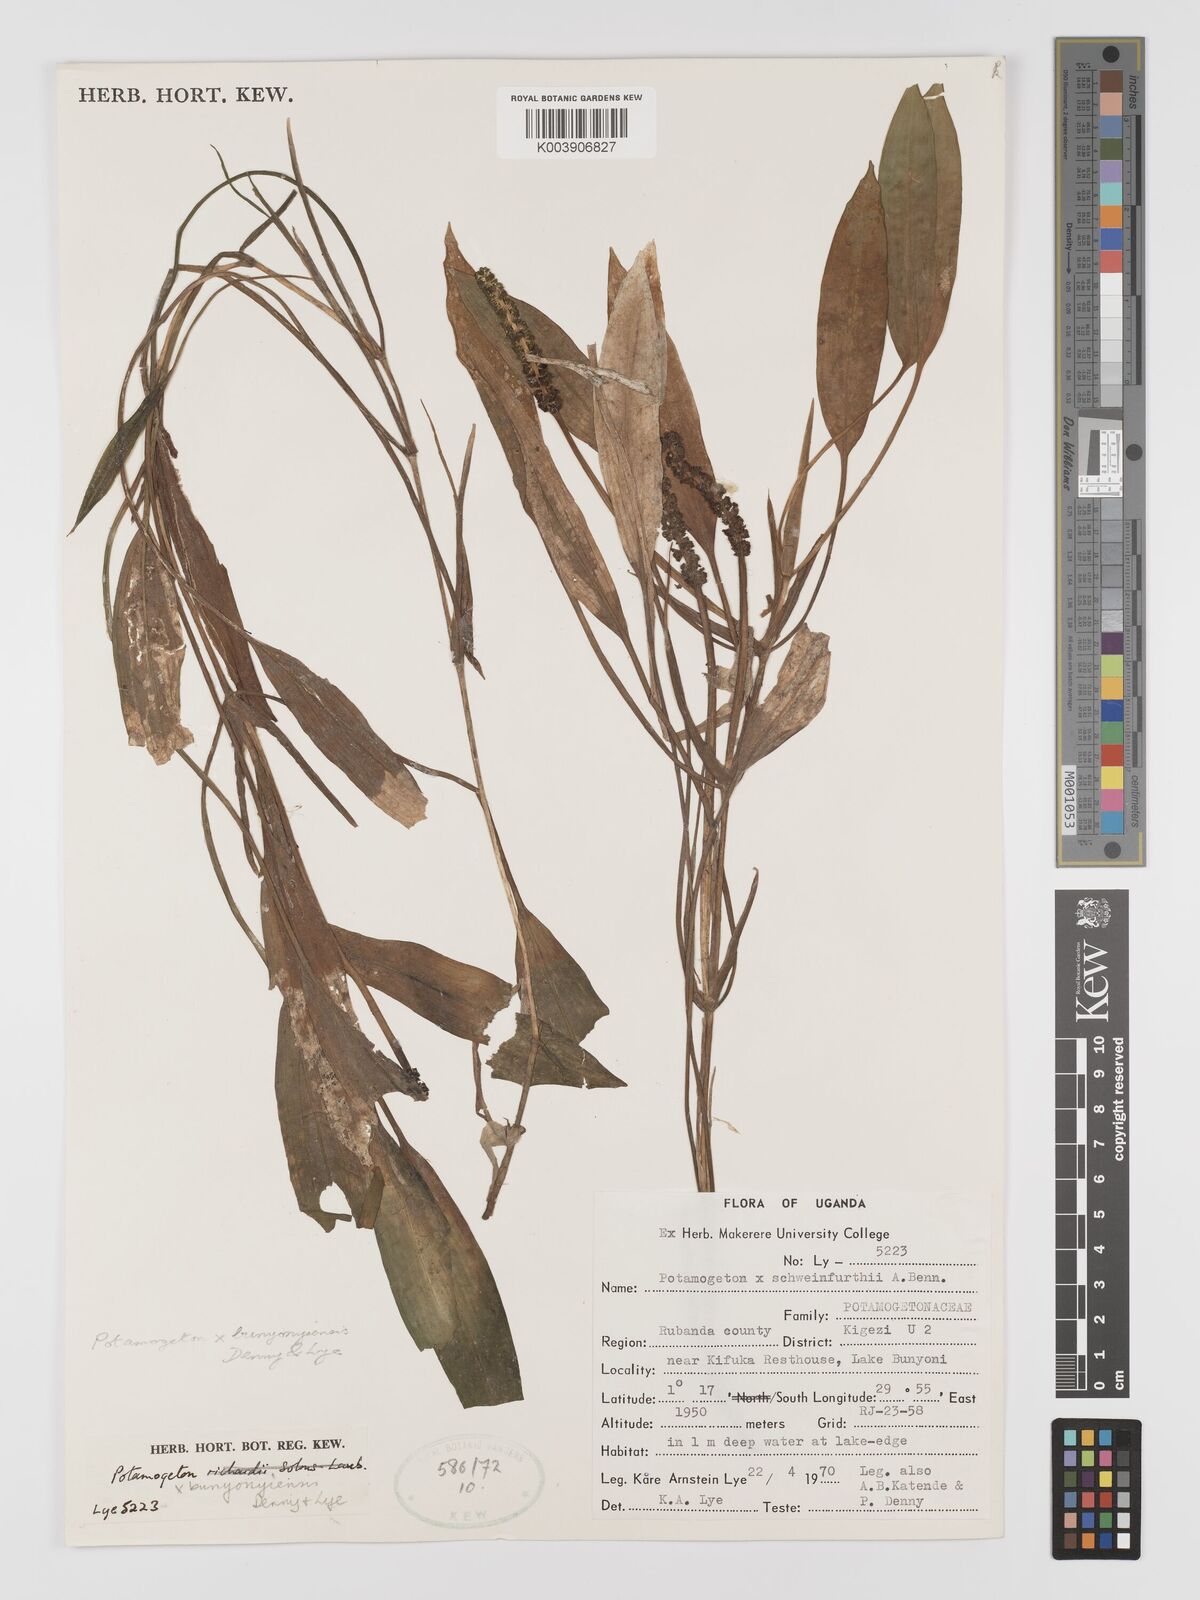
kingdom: Plantae
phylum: Tracheophyta
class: Liliopsida
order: Alismatales
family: Potamogetonaceae
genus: Potamogeton
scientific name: Potamogeton schweinfurthii
